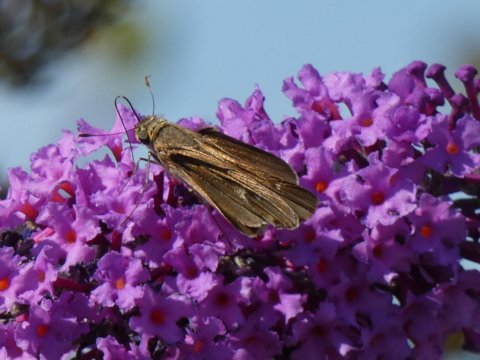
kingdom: Animalia
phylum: Arthropoda
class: Insecta
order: Lepidoptera
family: Hesperiidae
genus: Panoquina
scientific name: Panoquina ocola
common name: Ocola Skipper
